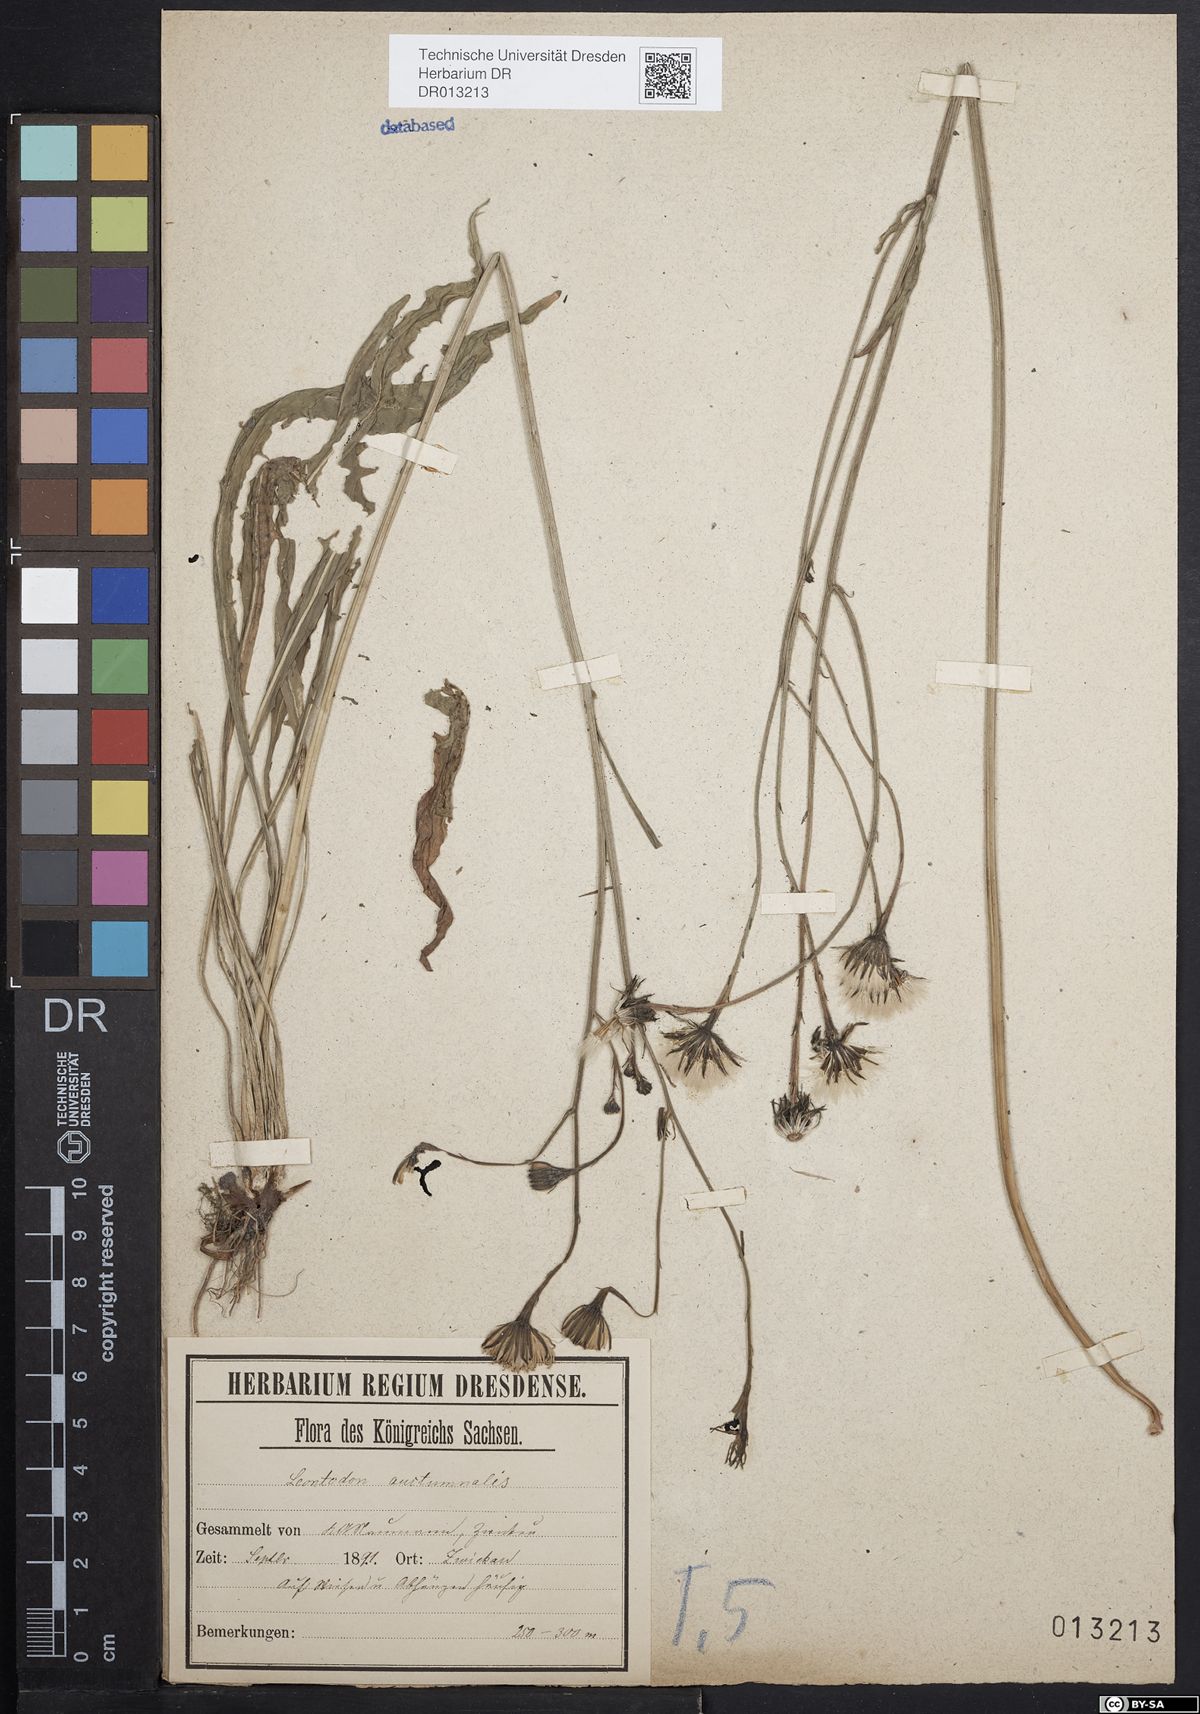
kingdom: Plantae
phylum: Tracheophyta
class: Magnoliopsida
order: Asterales
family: Asteraceae
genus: Scorzoneroides
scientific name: Scorzoneroides autumnalis
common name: Autumn hawkbit
